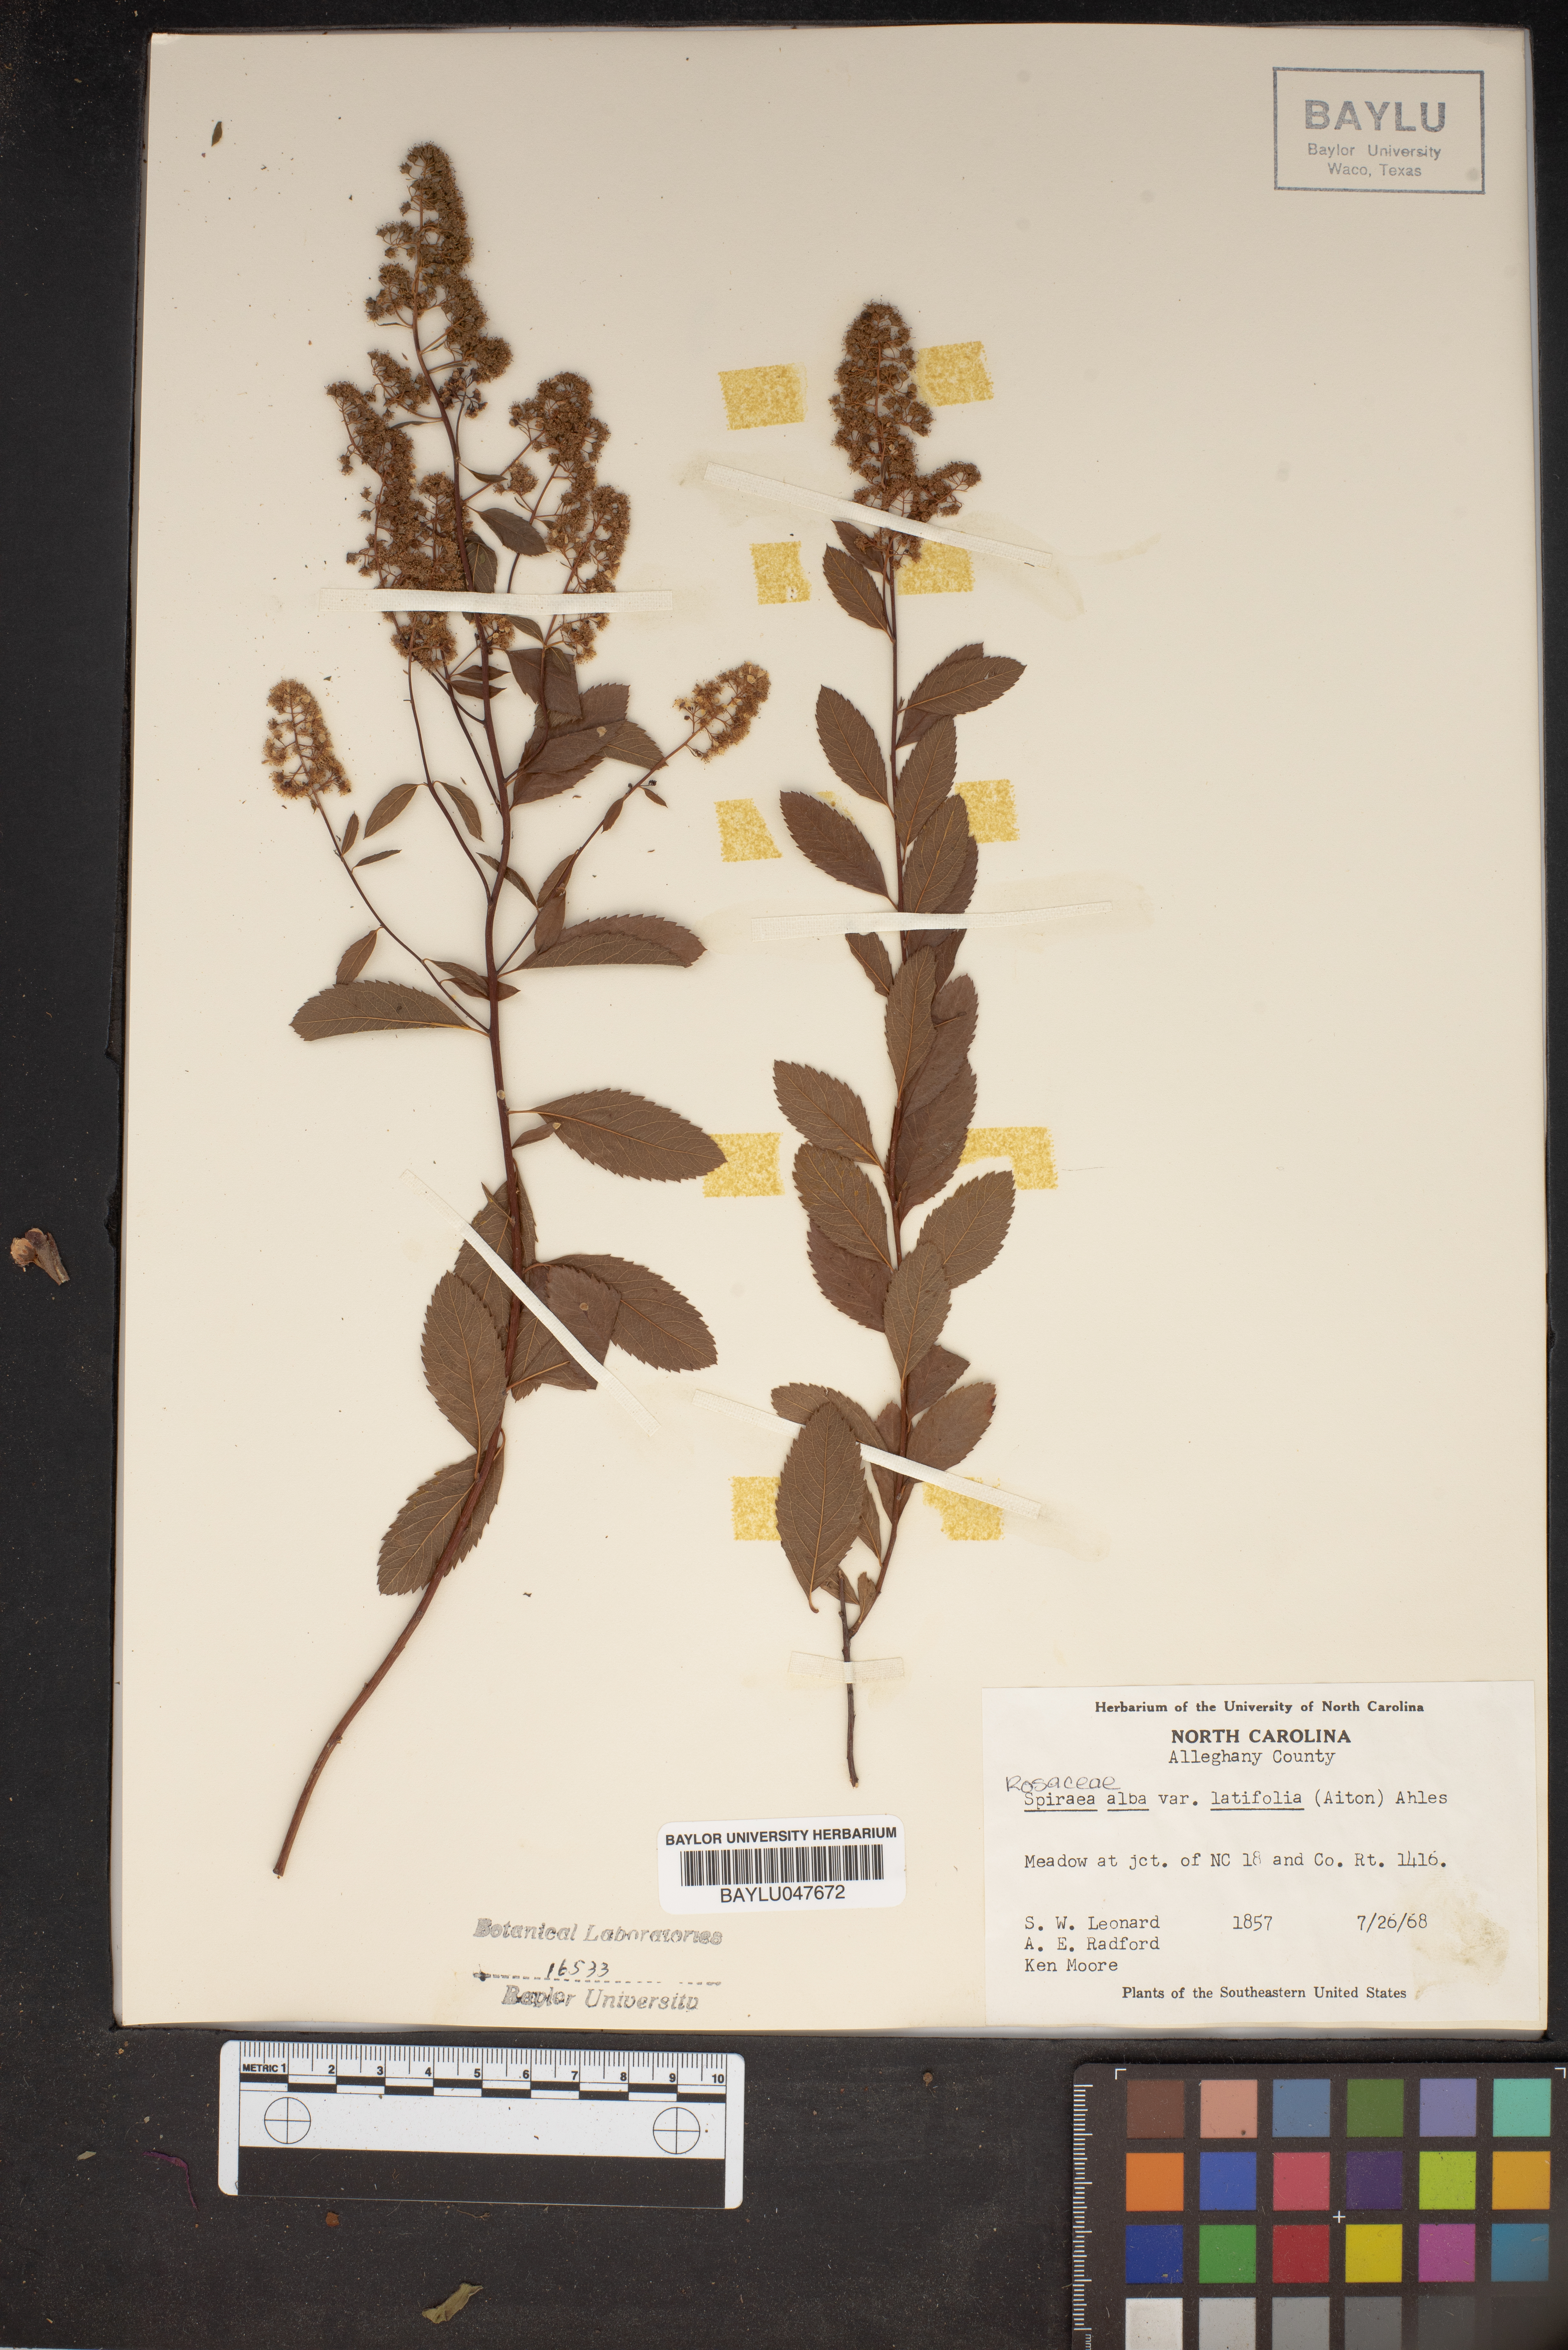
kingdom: Plantae
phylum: Tracheophyta
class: Magnoliopsida
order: Rosales
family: Rosaceae
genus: Spiraea
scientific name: Spiraea alba
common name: Pale bridewort
